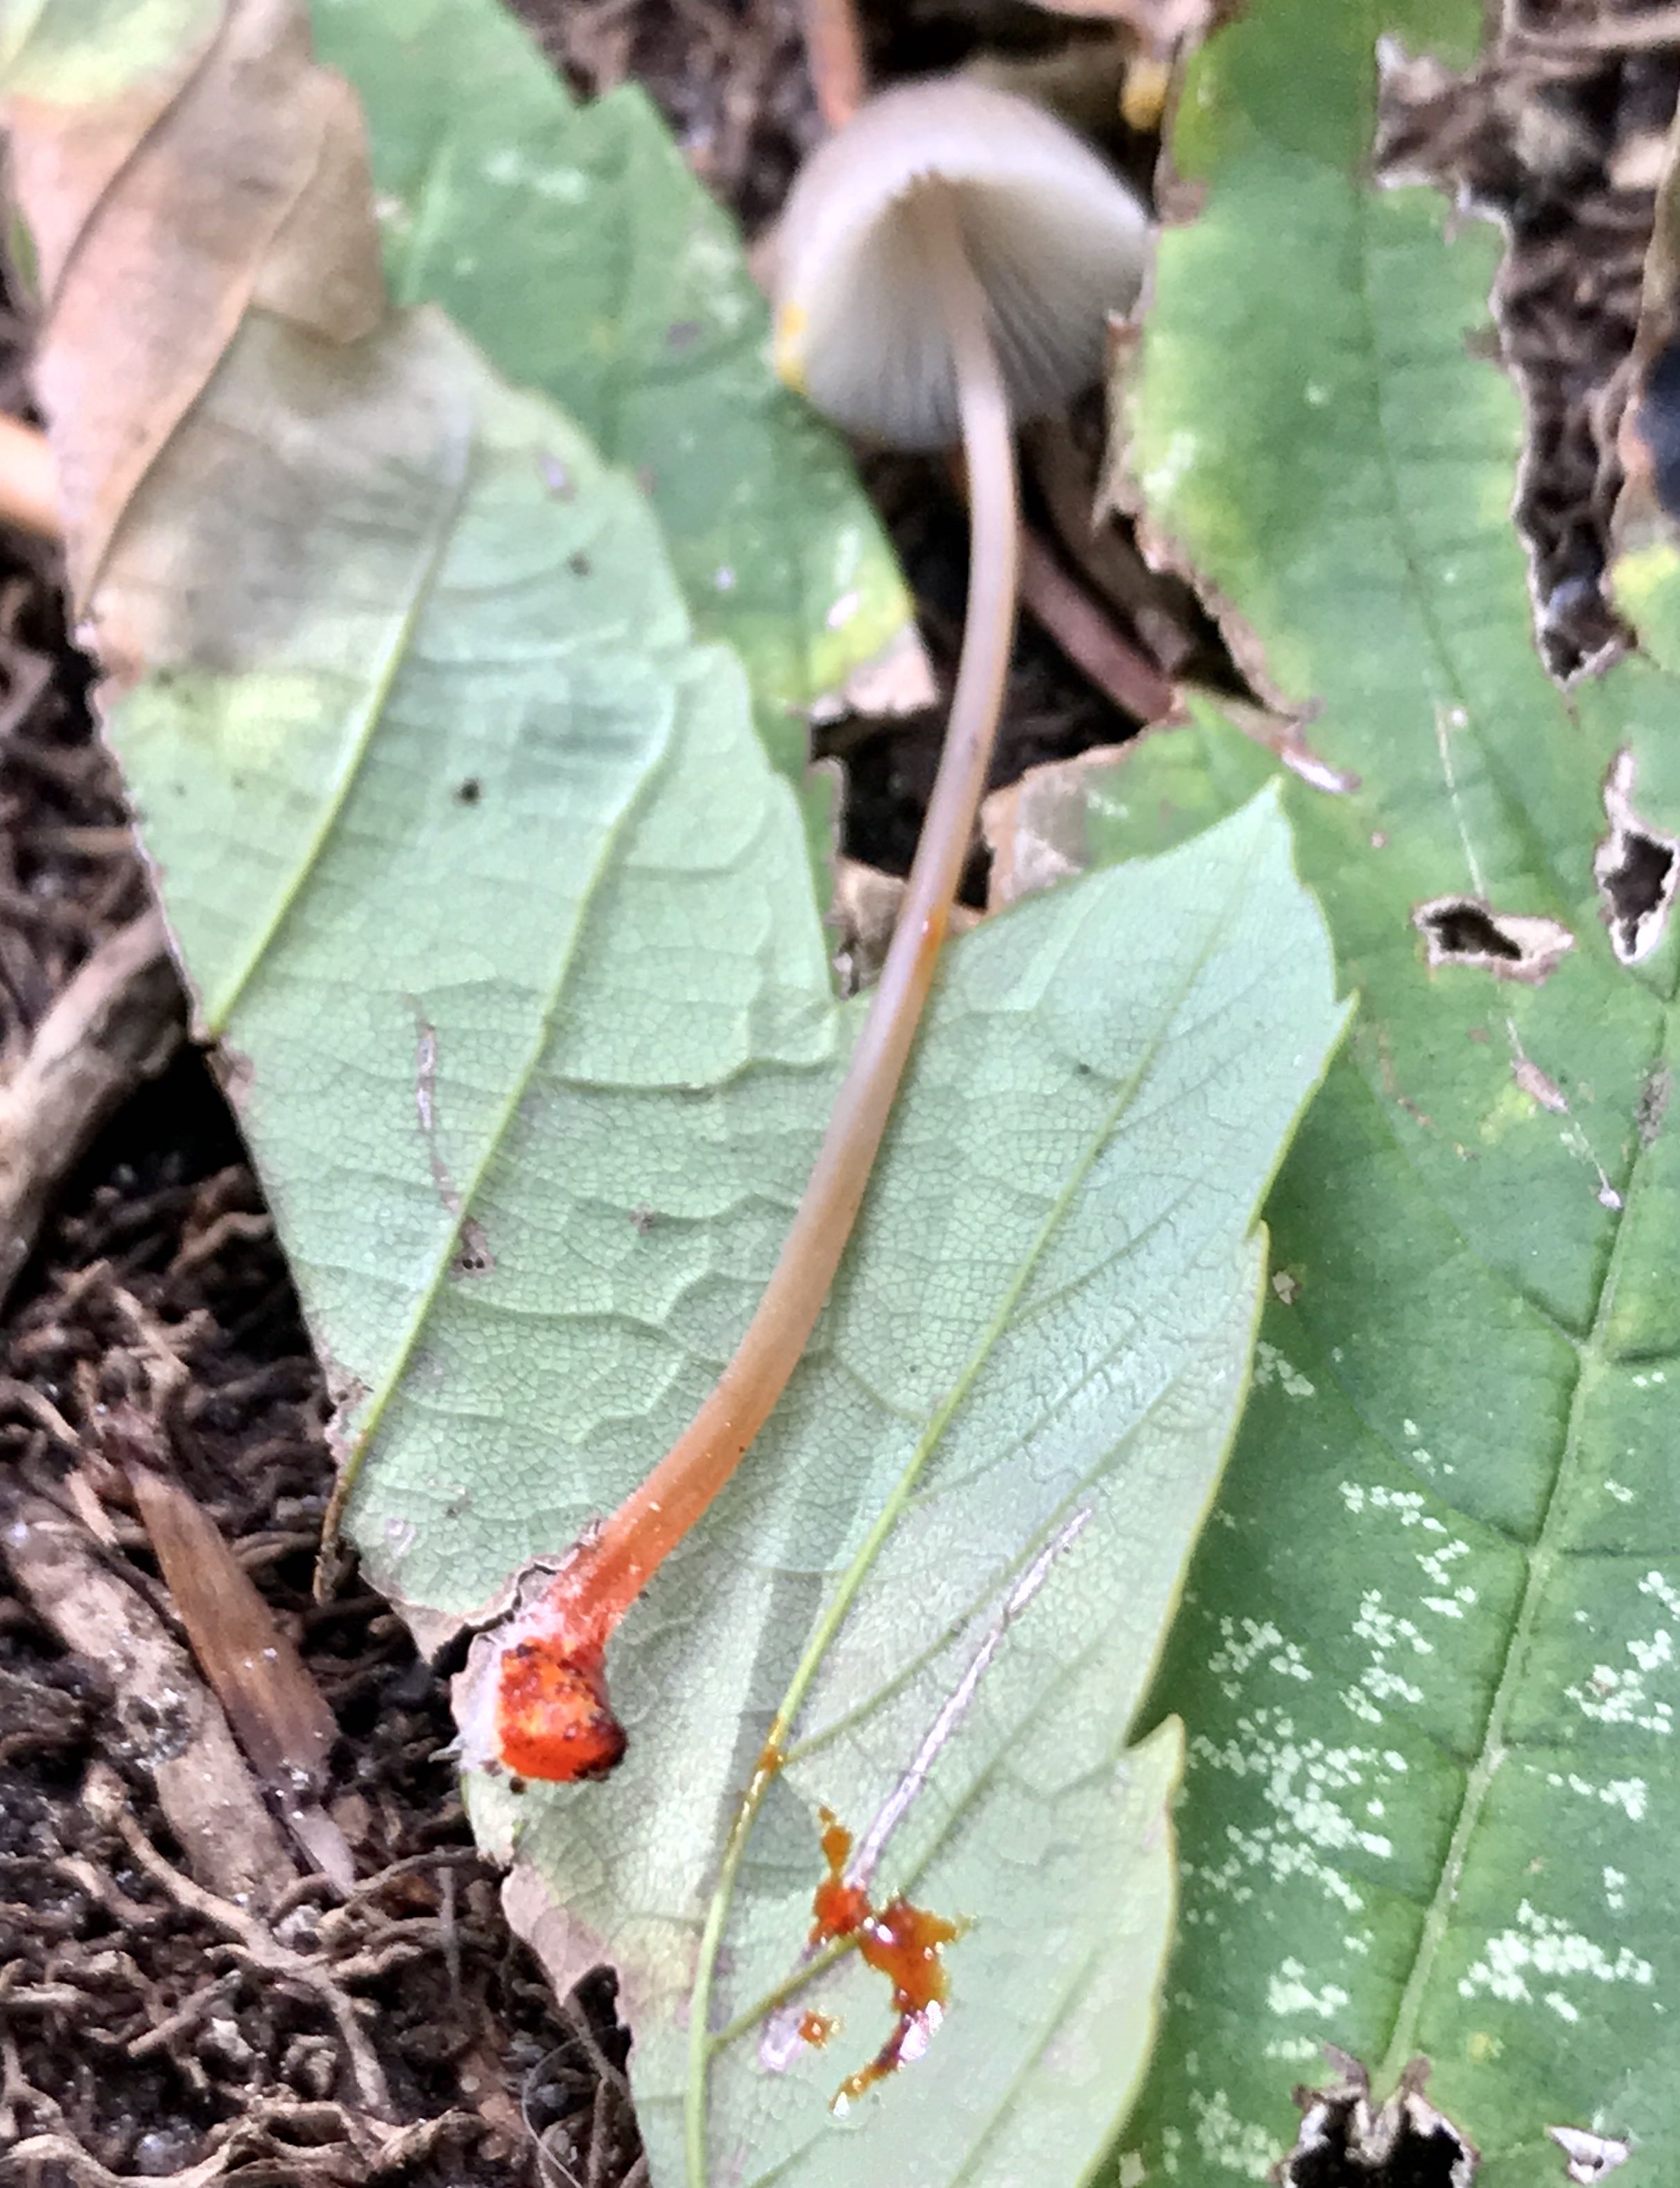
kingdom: Fungi
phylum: Basidiomycota
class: Agaricomycetes
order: Agaricales
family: Mycenaceae
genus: Mycena
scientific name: Mycena crocata
